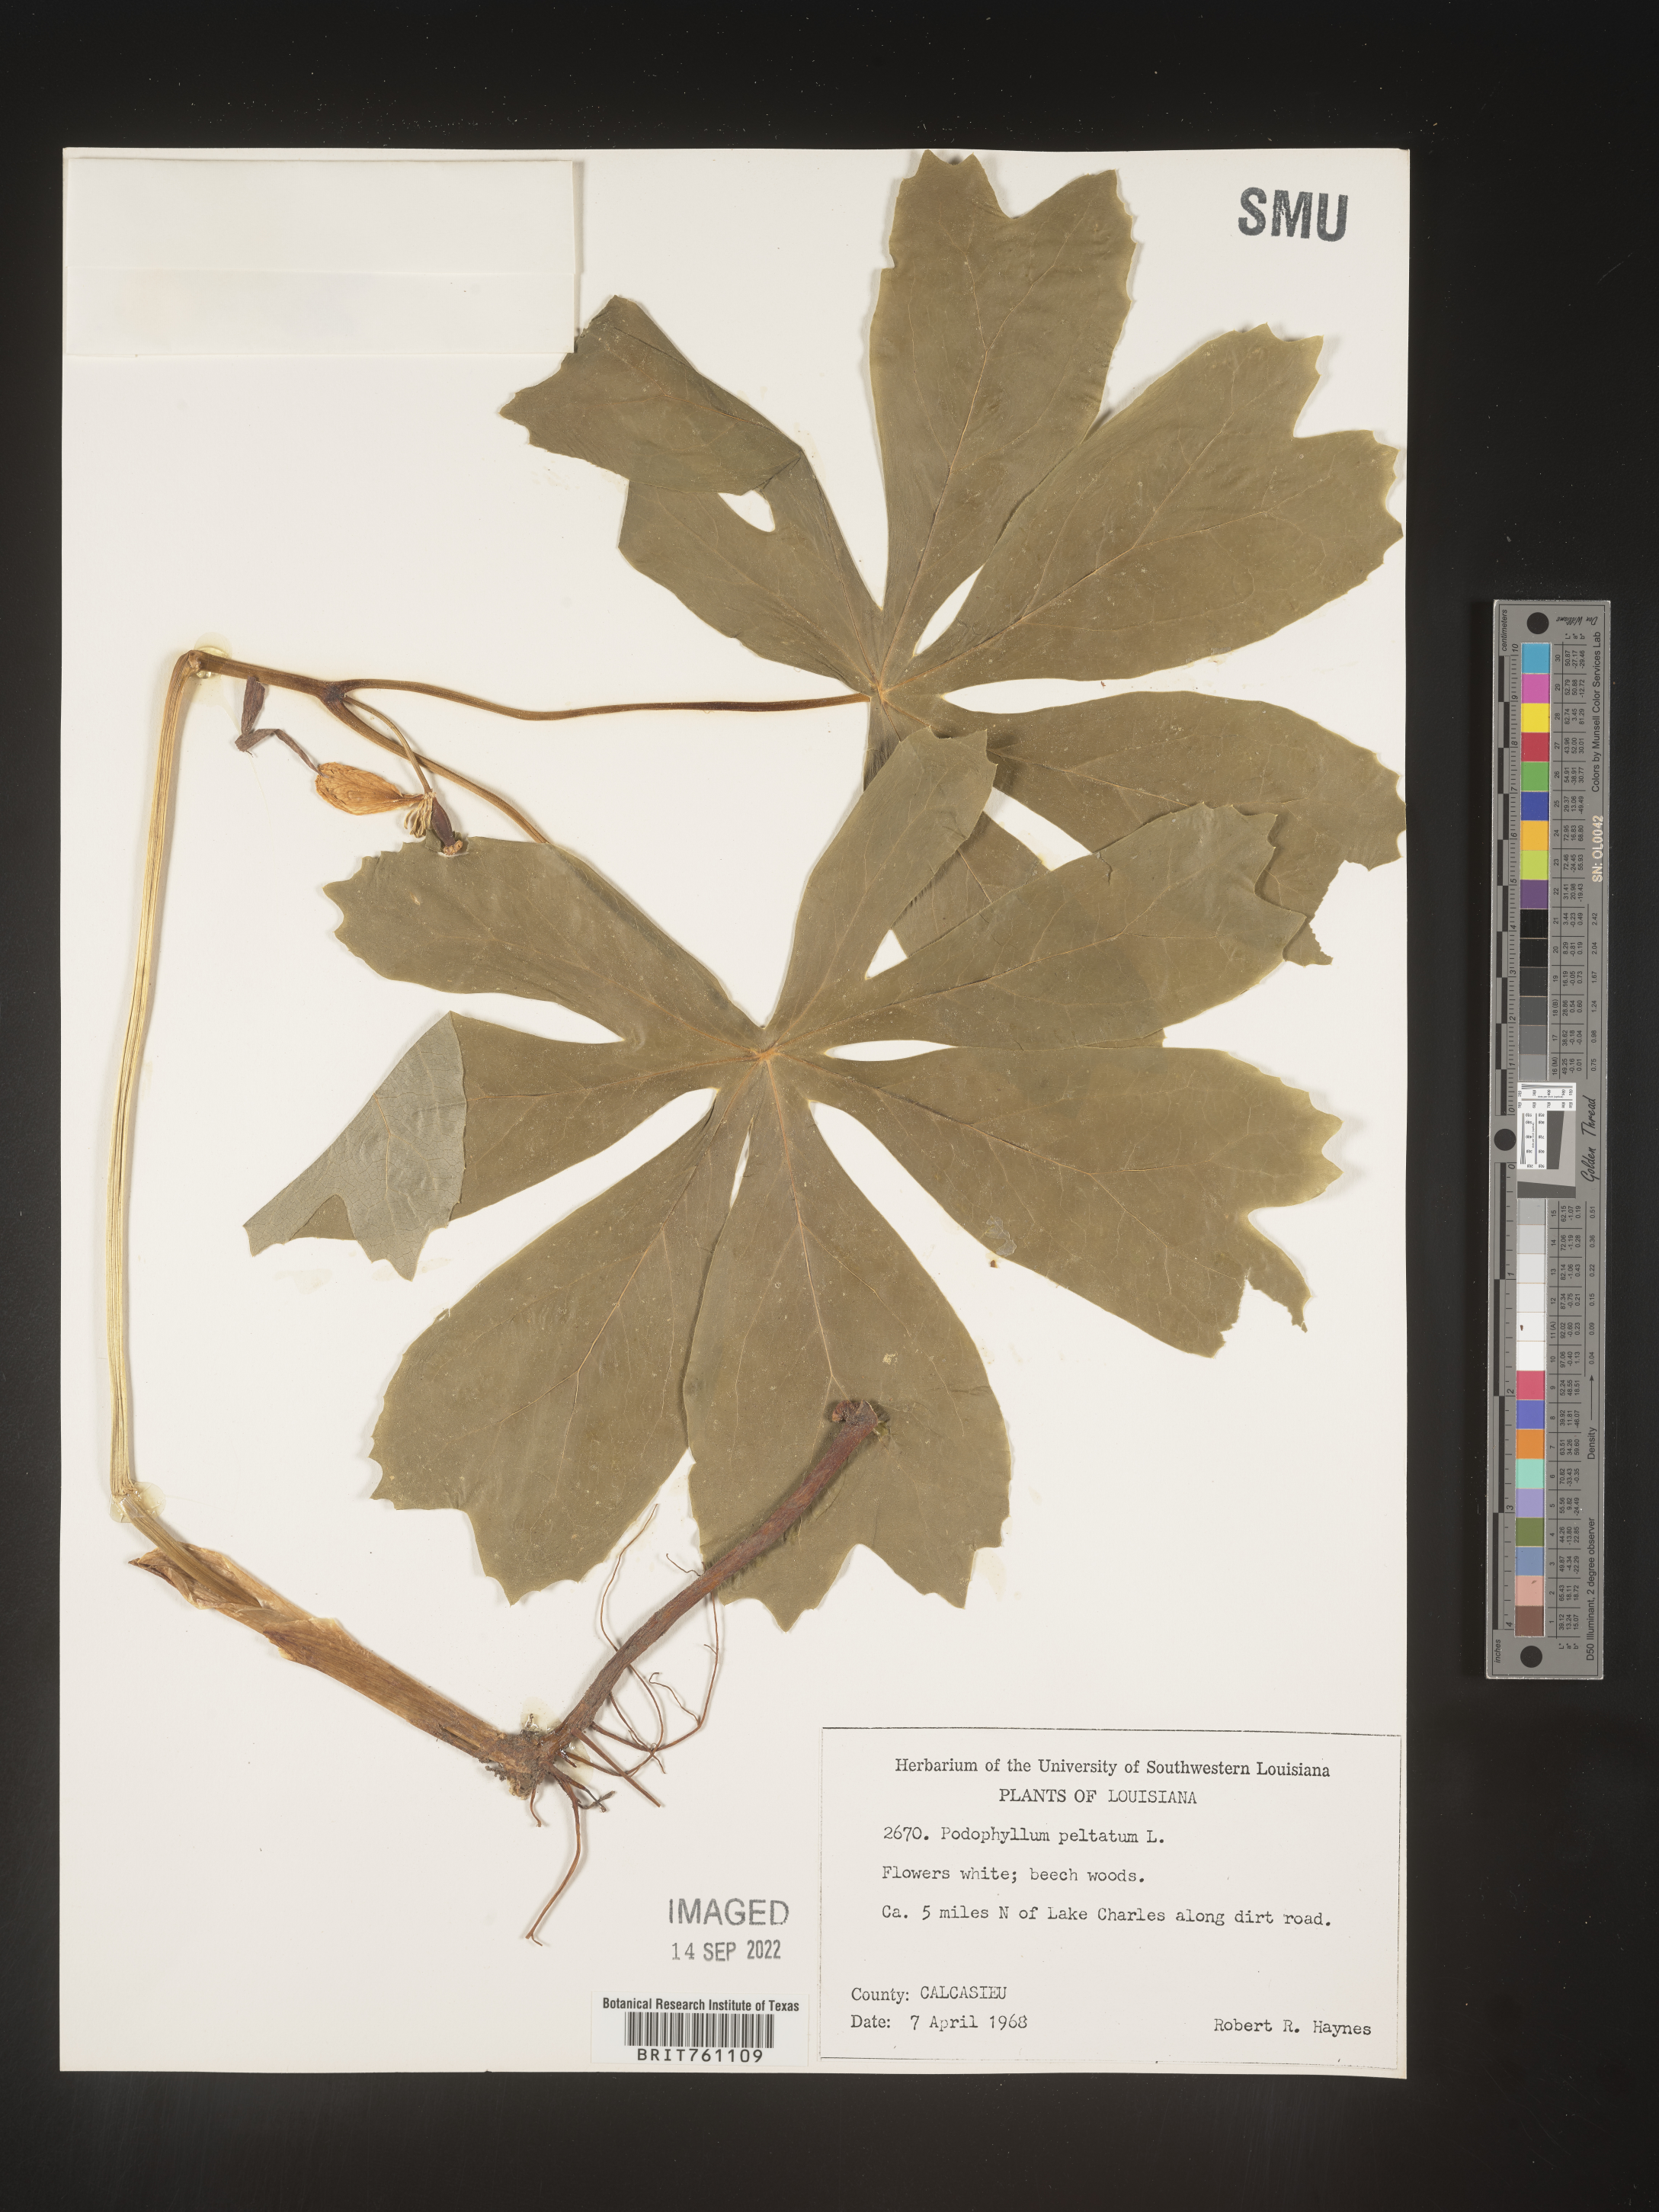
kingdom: Plantae
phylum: Tracheophyta
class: Magnoliopsida
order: Ranunculales
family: Berberidaceae
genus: Podophyllum
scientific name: Podophyllum peltatum
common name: Wild mandrake
